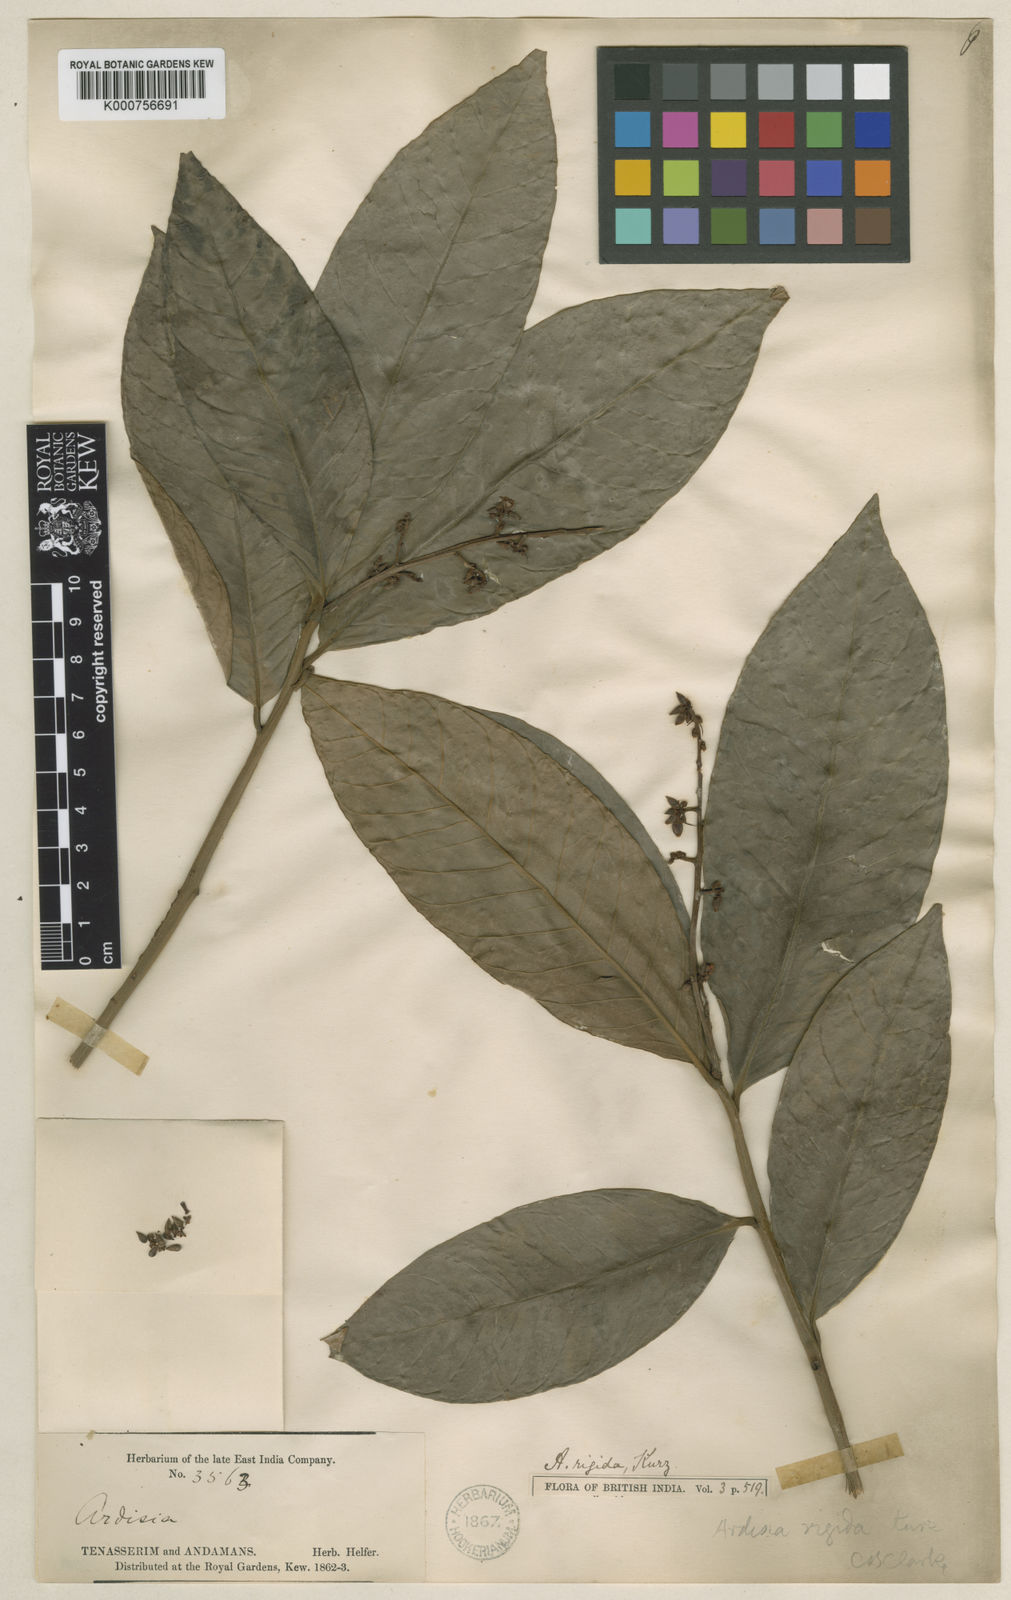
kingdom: Plantae
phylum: Tracheophyta
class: Magnoliopsida
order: Ericales
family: Primulaceae
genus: Ardisia
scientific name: Ardisia rigida
